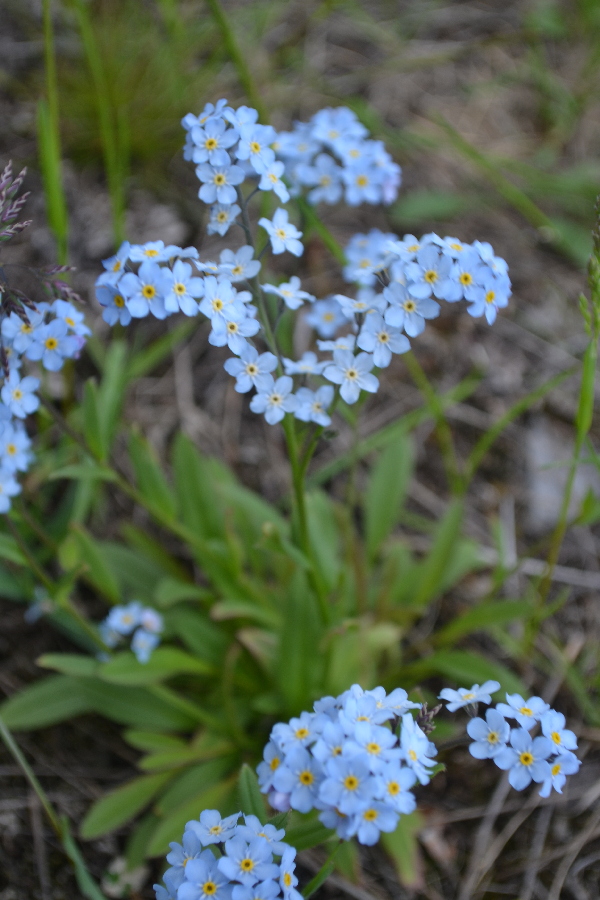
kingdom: Plantae
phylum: Tracheophyta
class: Magnoliopsida
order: Boraginales
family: Boraginaceae
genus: Myosotis
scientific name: Myosotis asiatica
